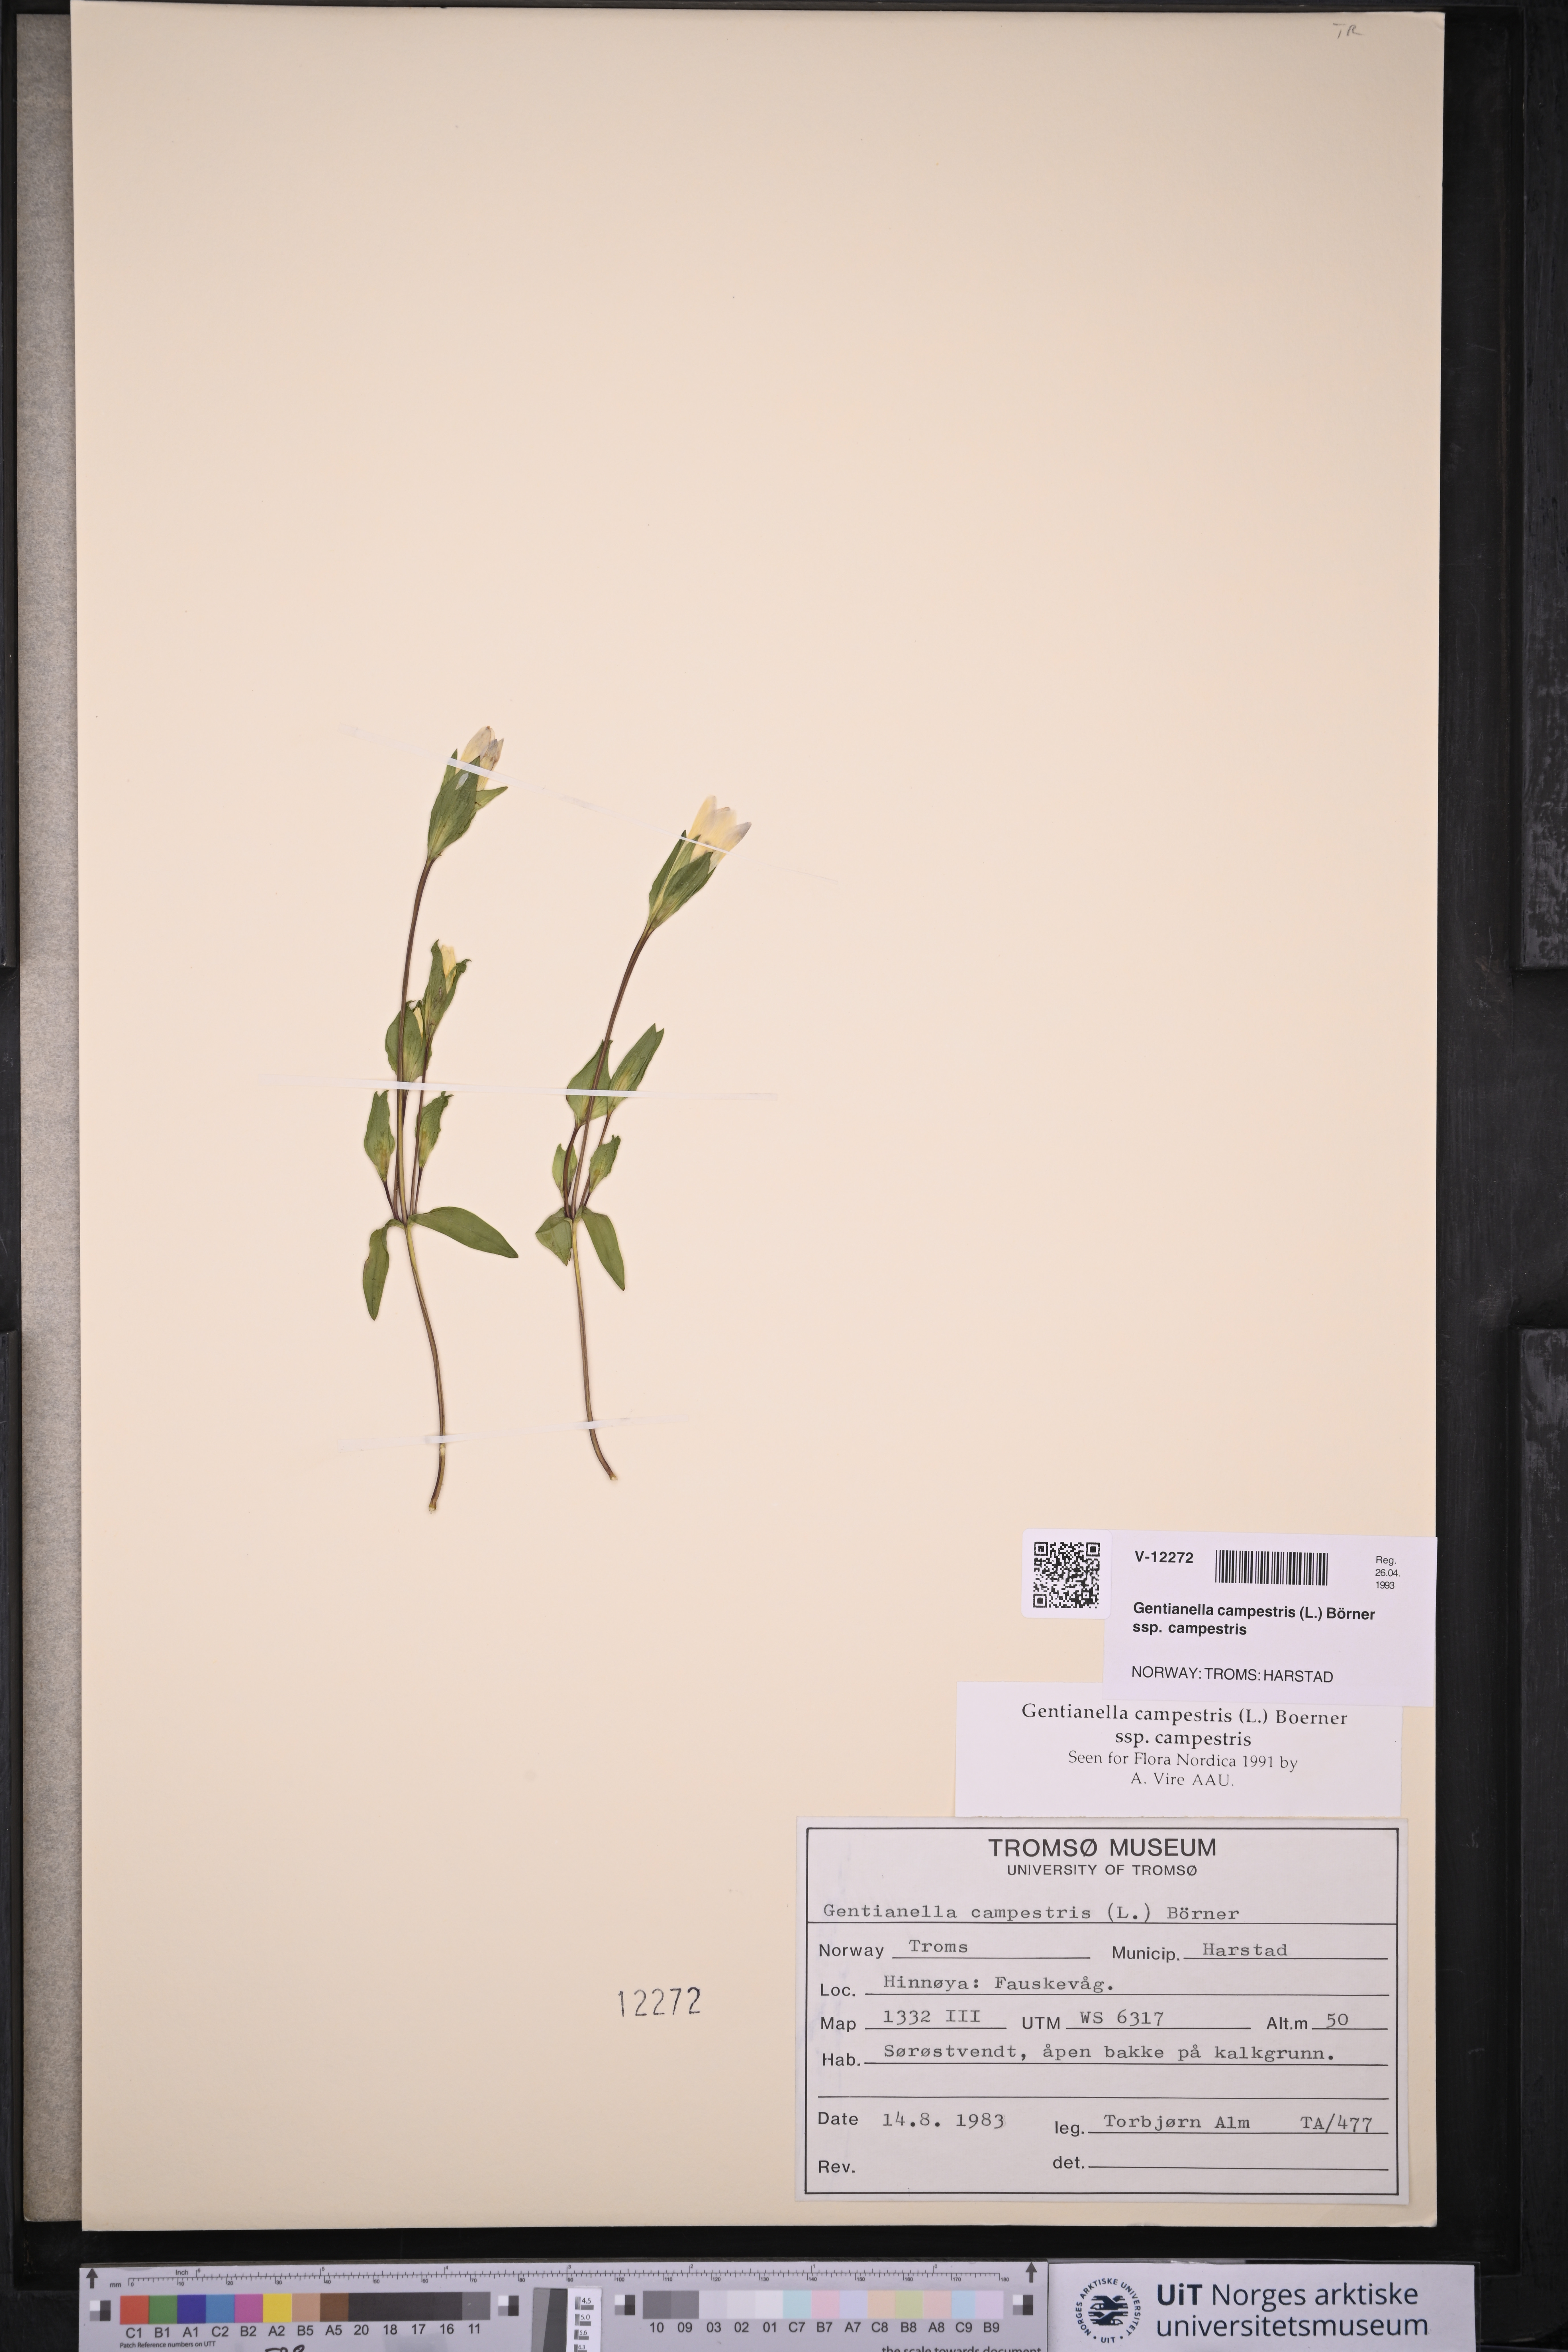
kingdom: Plantae
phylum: Tracheophyta
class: Magnoliopsida
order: Gentianales
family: Gentianaceae
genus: Gentianella
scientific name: Gentianella campestris
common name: Field gentian
